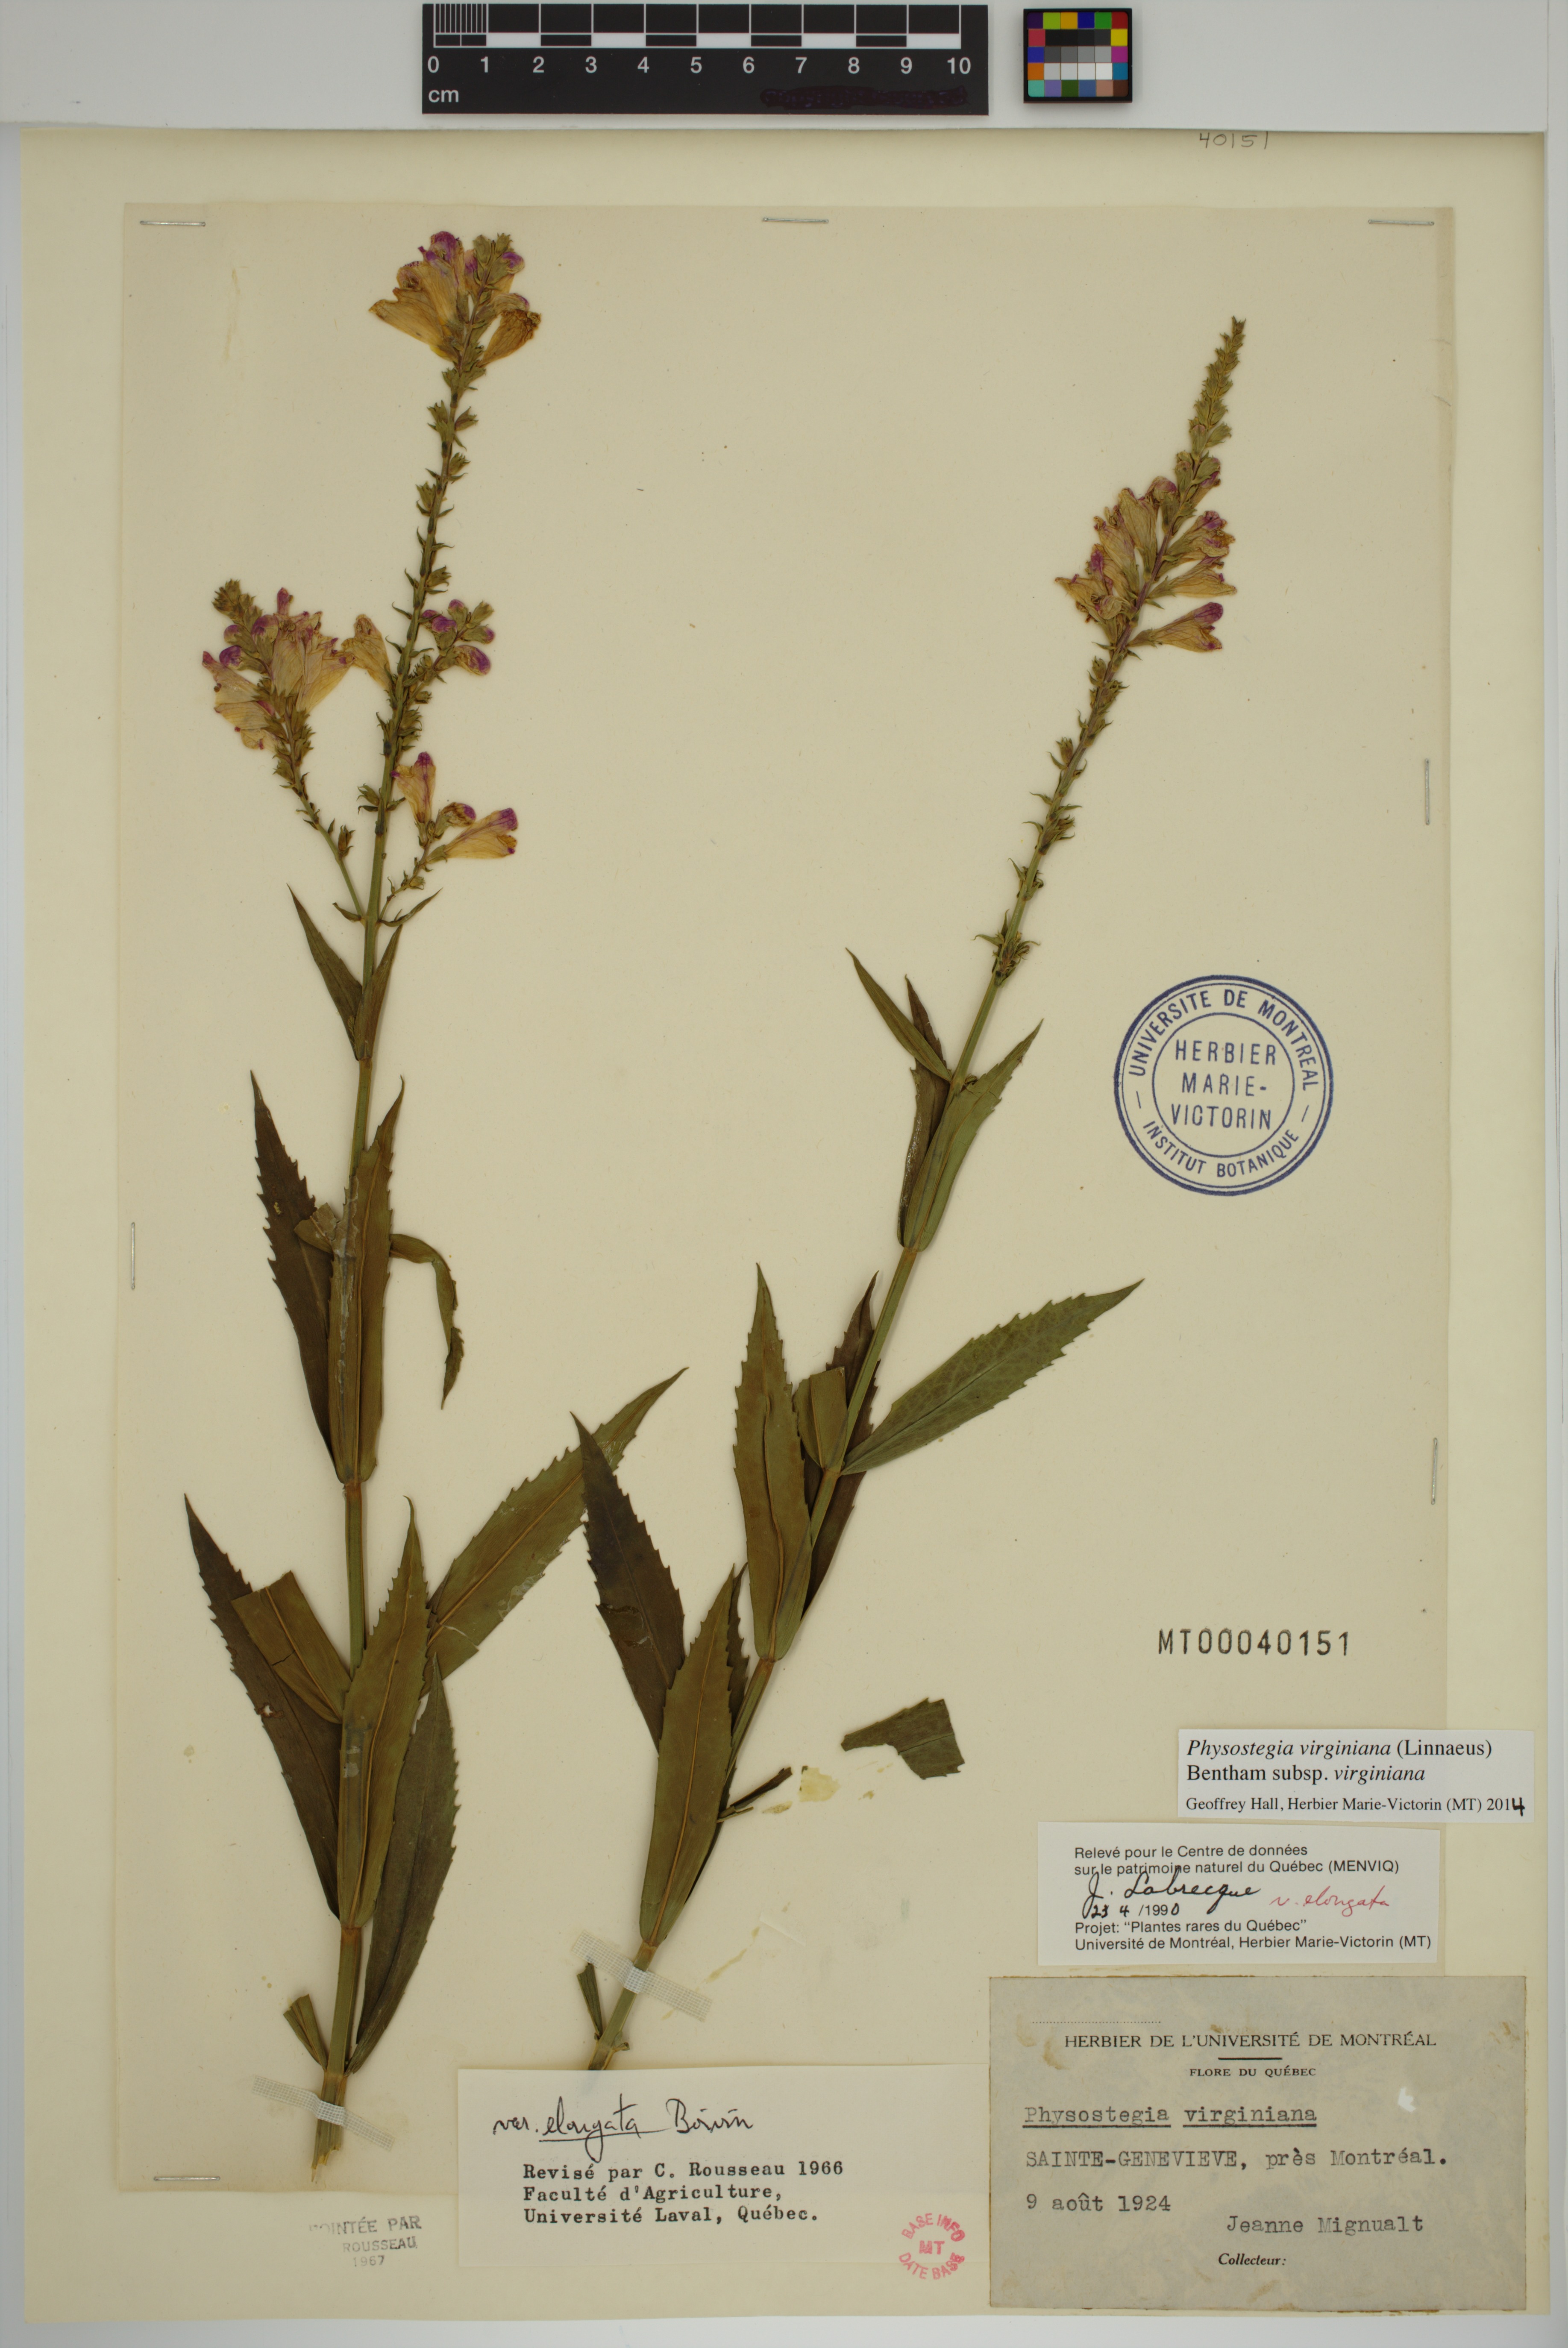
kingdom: Plantae
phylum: Tracheophyta
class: Magnoliopsida
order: Lamiales
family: Lamiaceae
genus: Physostegia
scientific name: Physostegia virginiana
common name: Obedient-plant
